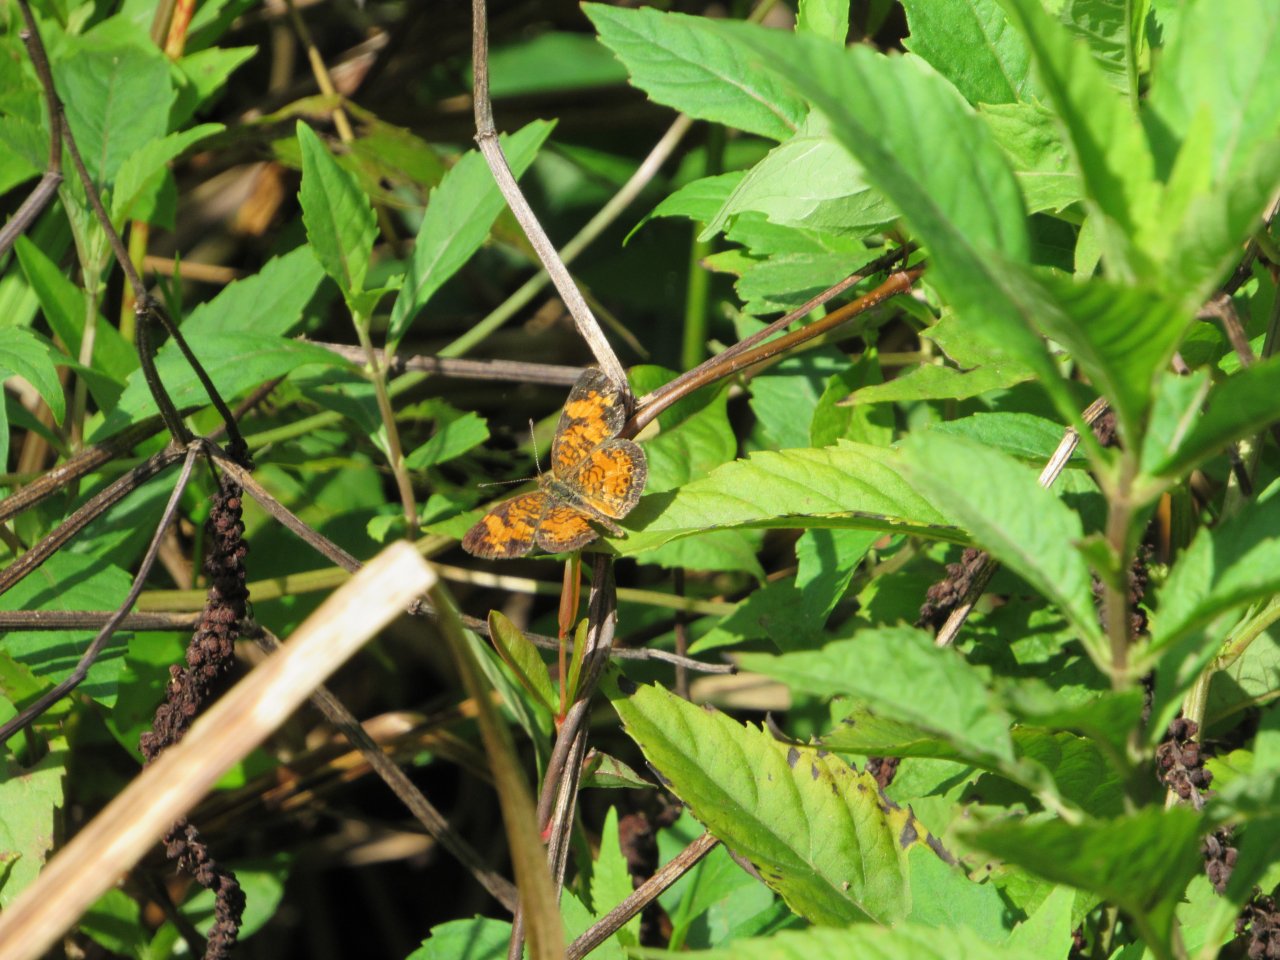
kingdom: Animalia
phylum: Arthropoda
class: Insecta
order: Lepidoptera
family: Nymphalidae
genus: Phyciodes
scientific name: Phyciodes tharos
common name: Pearl Crescent
